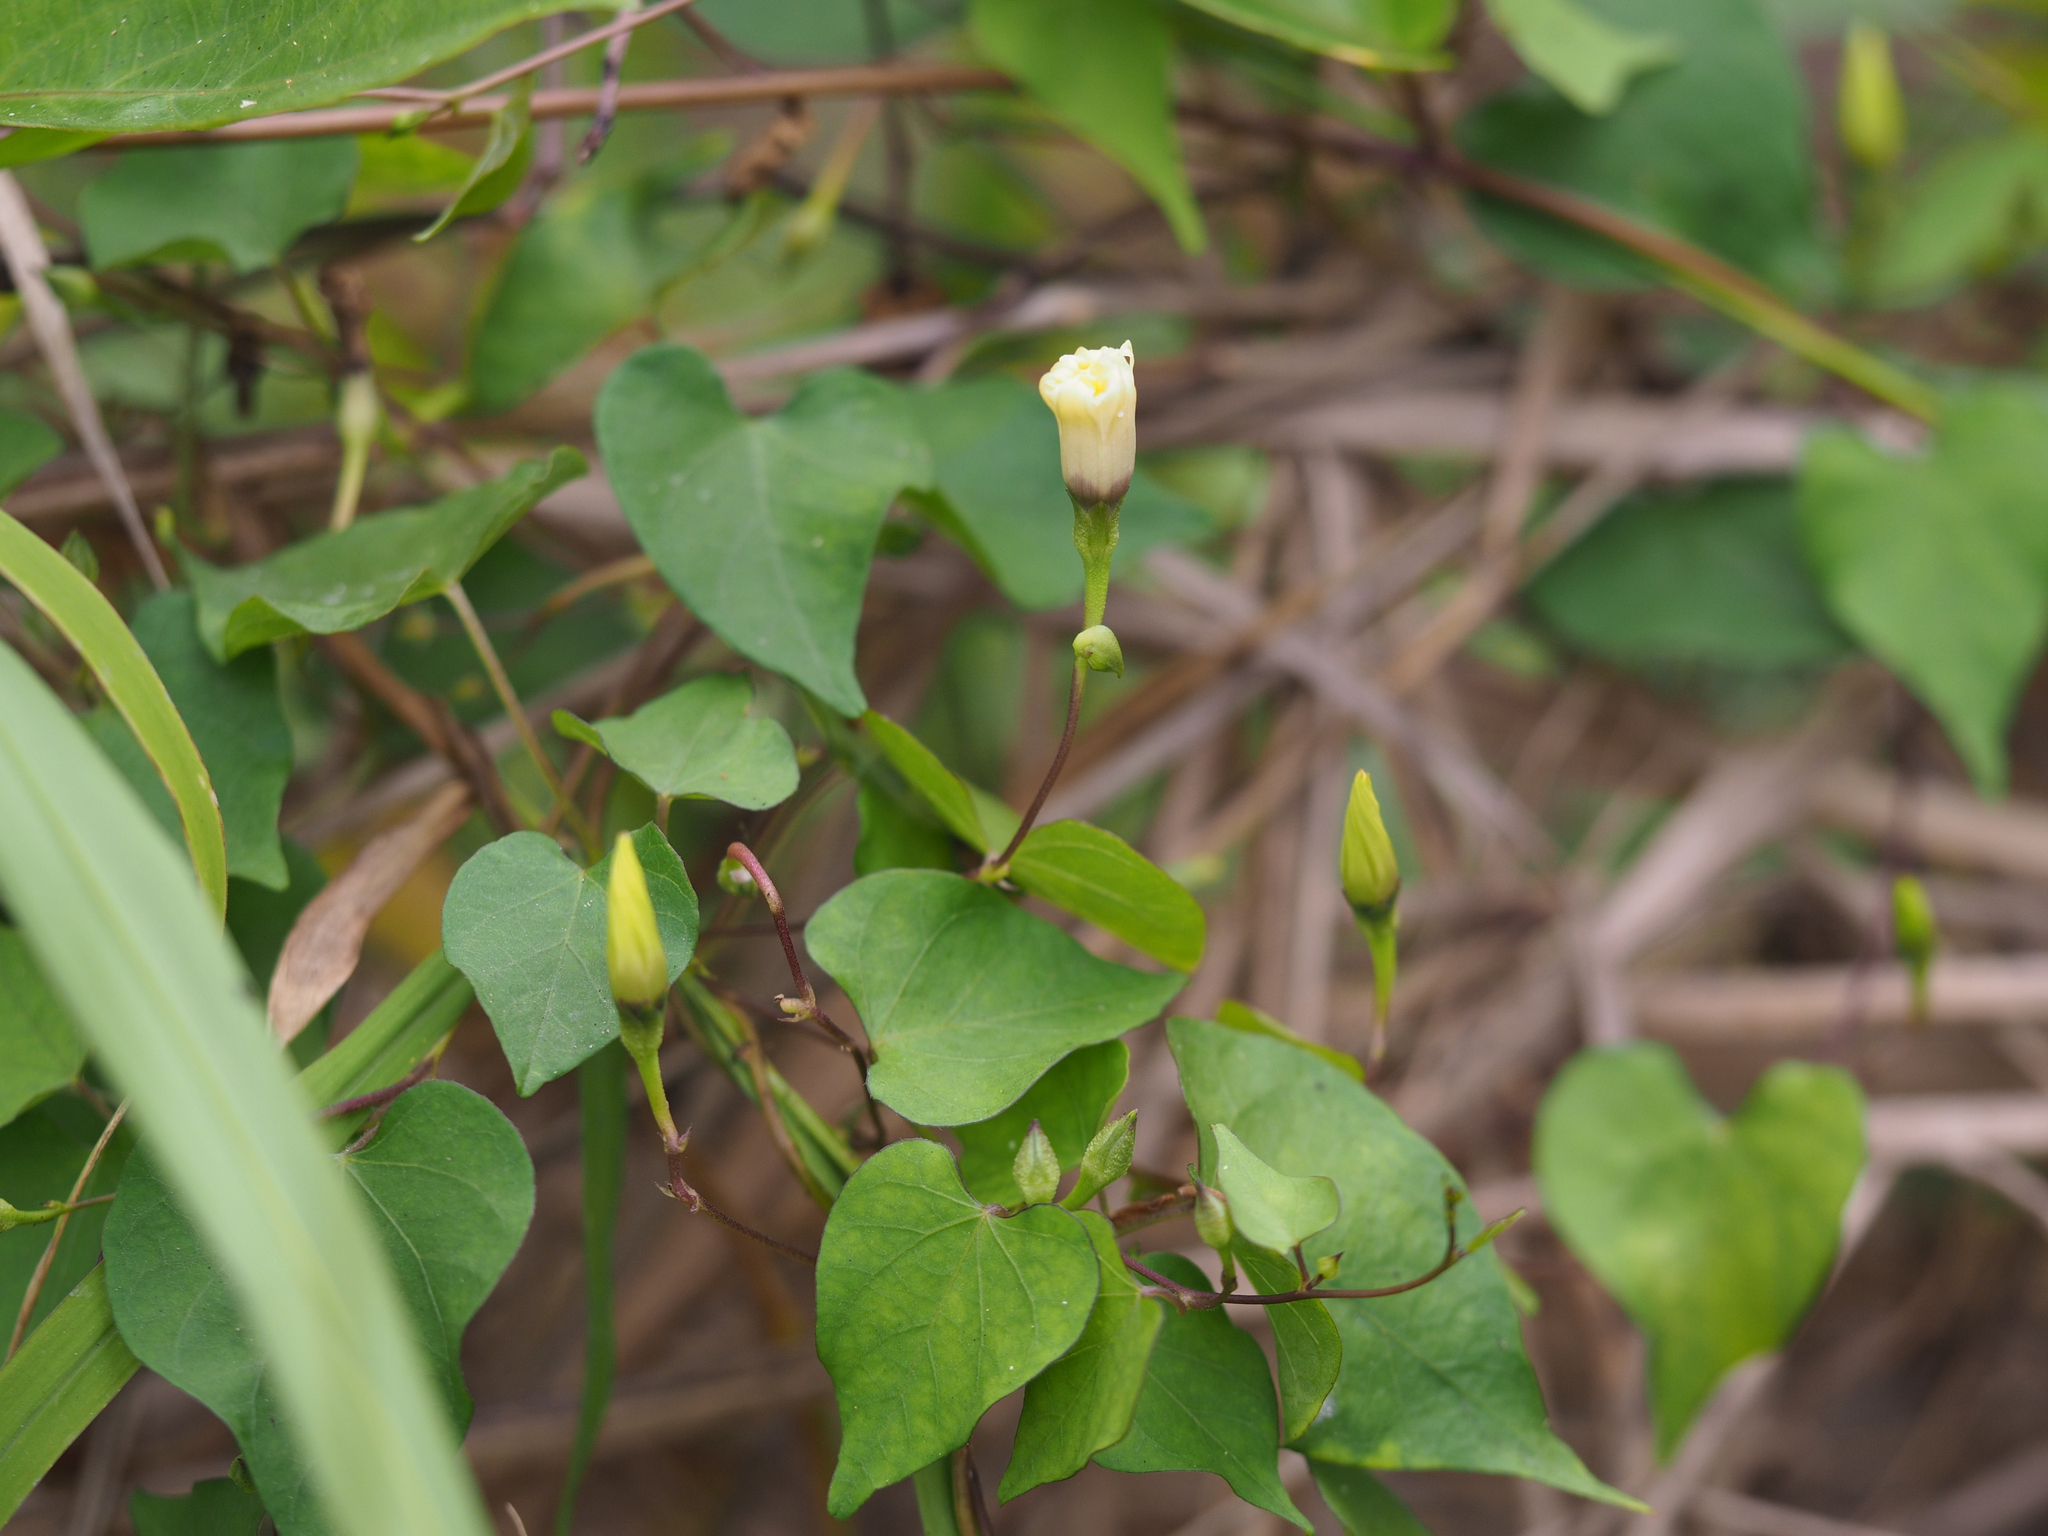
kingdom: Plantae
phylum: Tracheophyta
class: Magnoliopsida
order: Solanales
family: Convolvulaceae
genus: Ipomoea
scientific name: Ipomoea obscura
